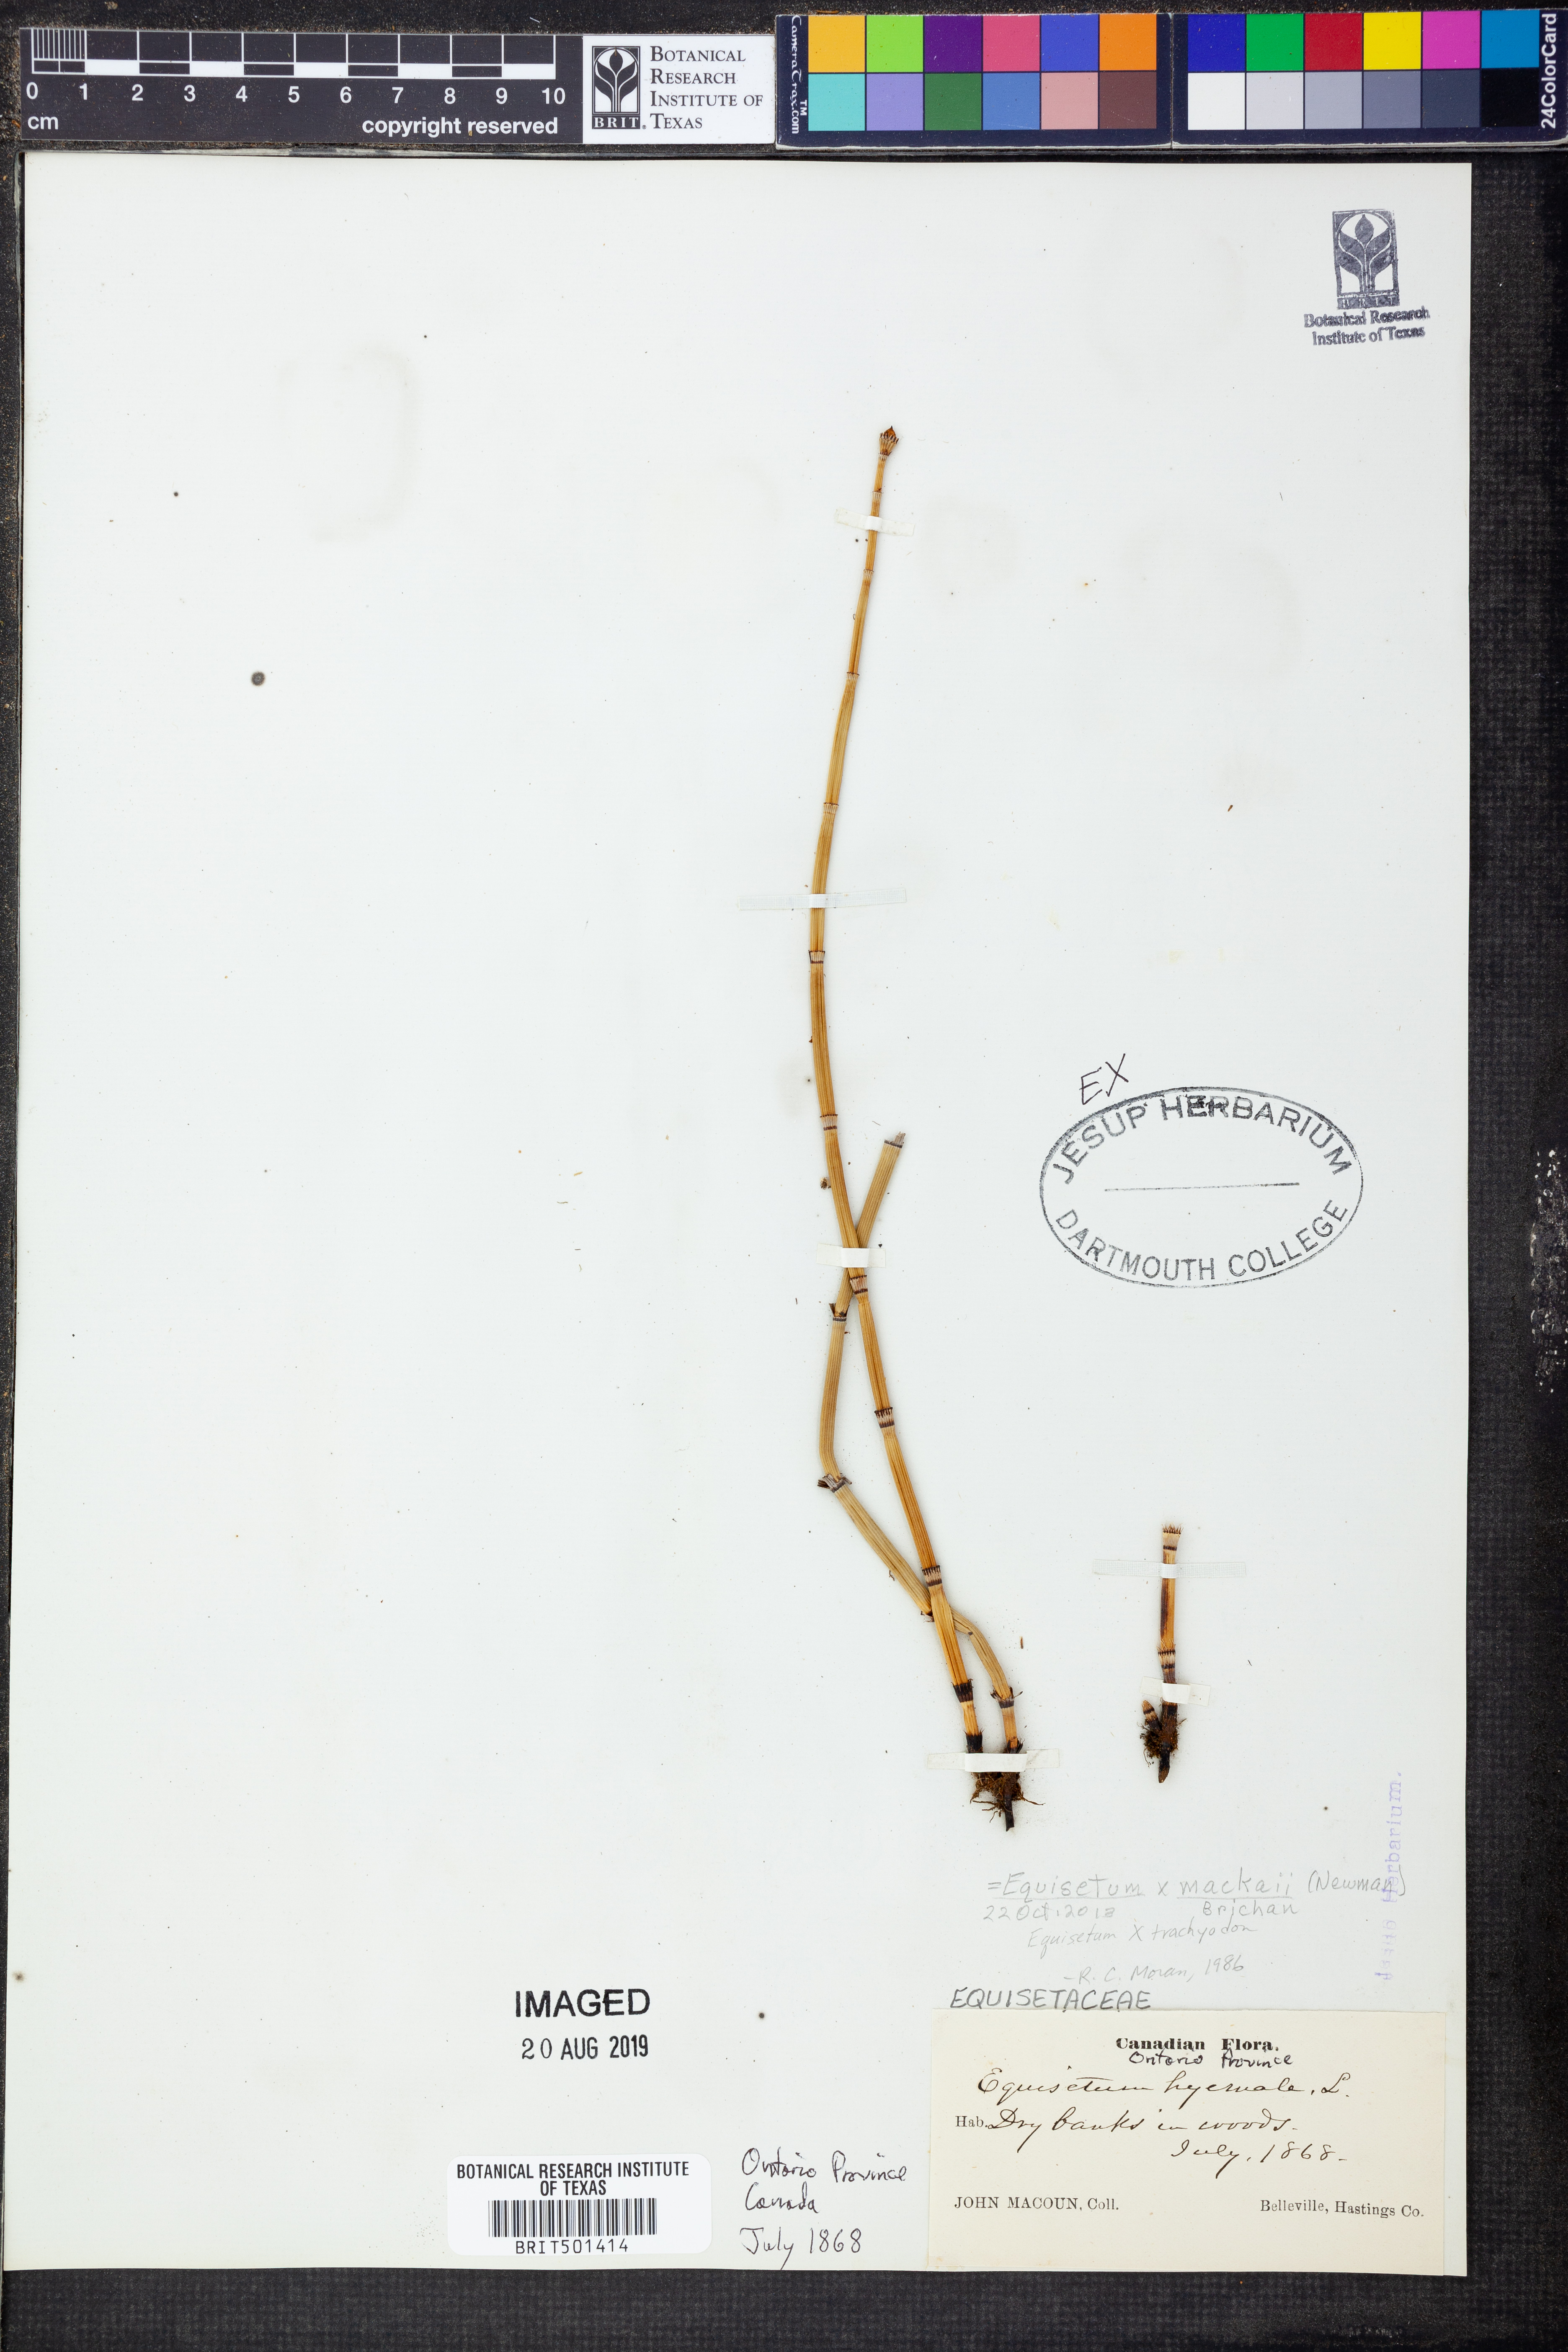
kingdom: Plantae
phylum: Tracheophyta
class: Polypodiopsida
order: Equisetales
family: Equisetaceae
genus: Equisetum
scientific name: Equisetum
